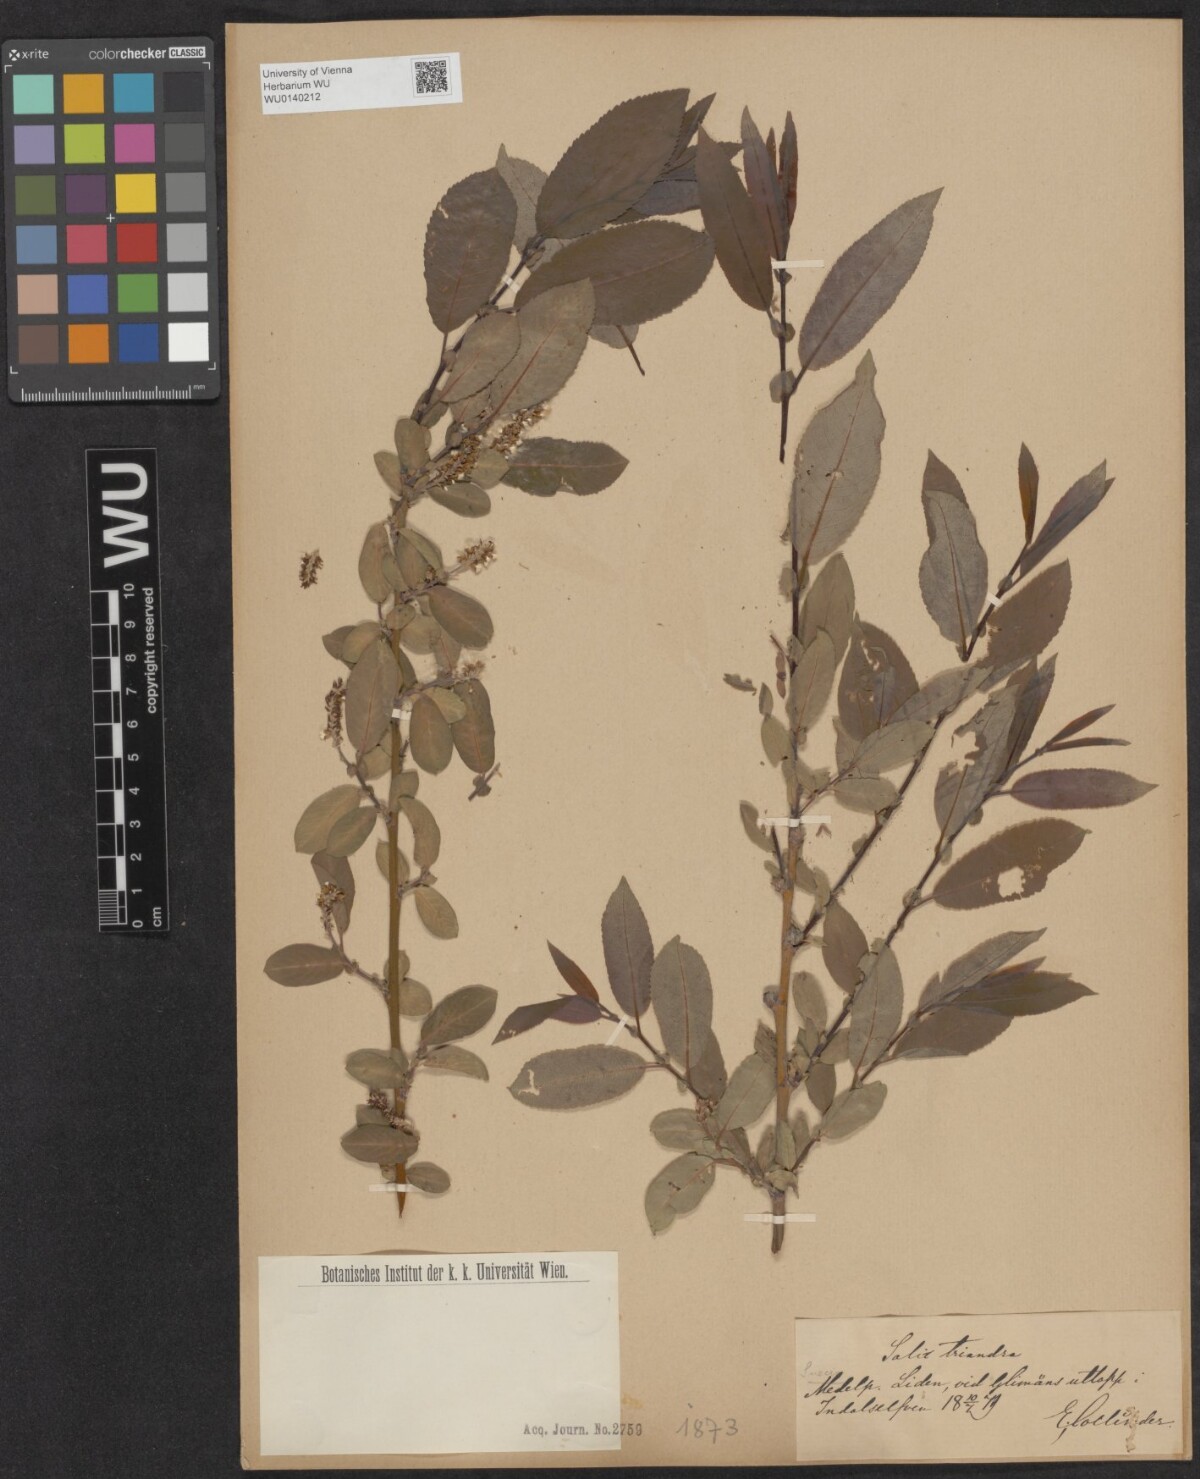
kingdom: Plantae
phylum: Tracheophyta
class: Magnoliopsida
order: Malpighiales
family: Salicaceae
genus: Salix
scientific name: Salix triandra
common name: Almond willow
